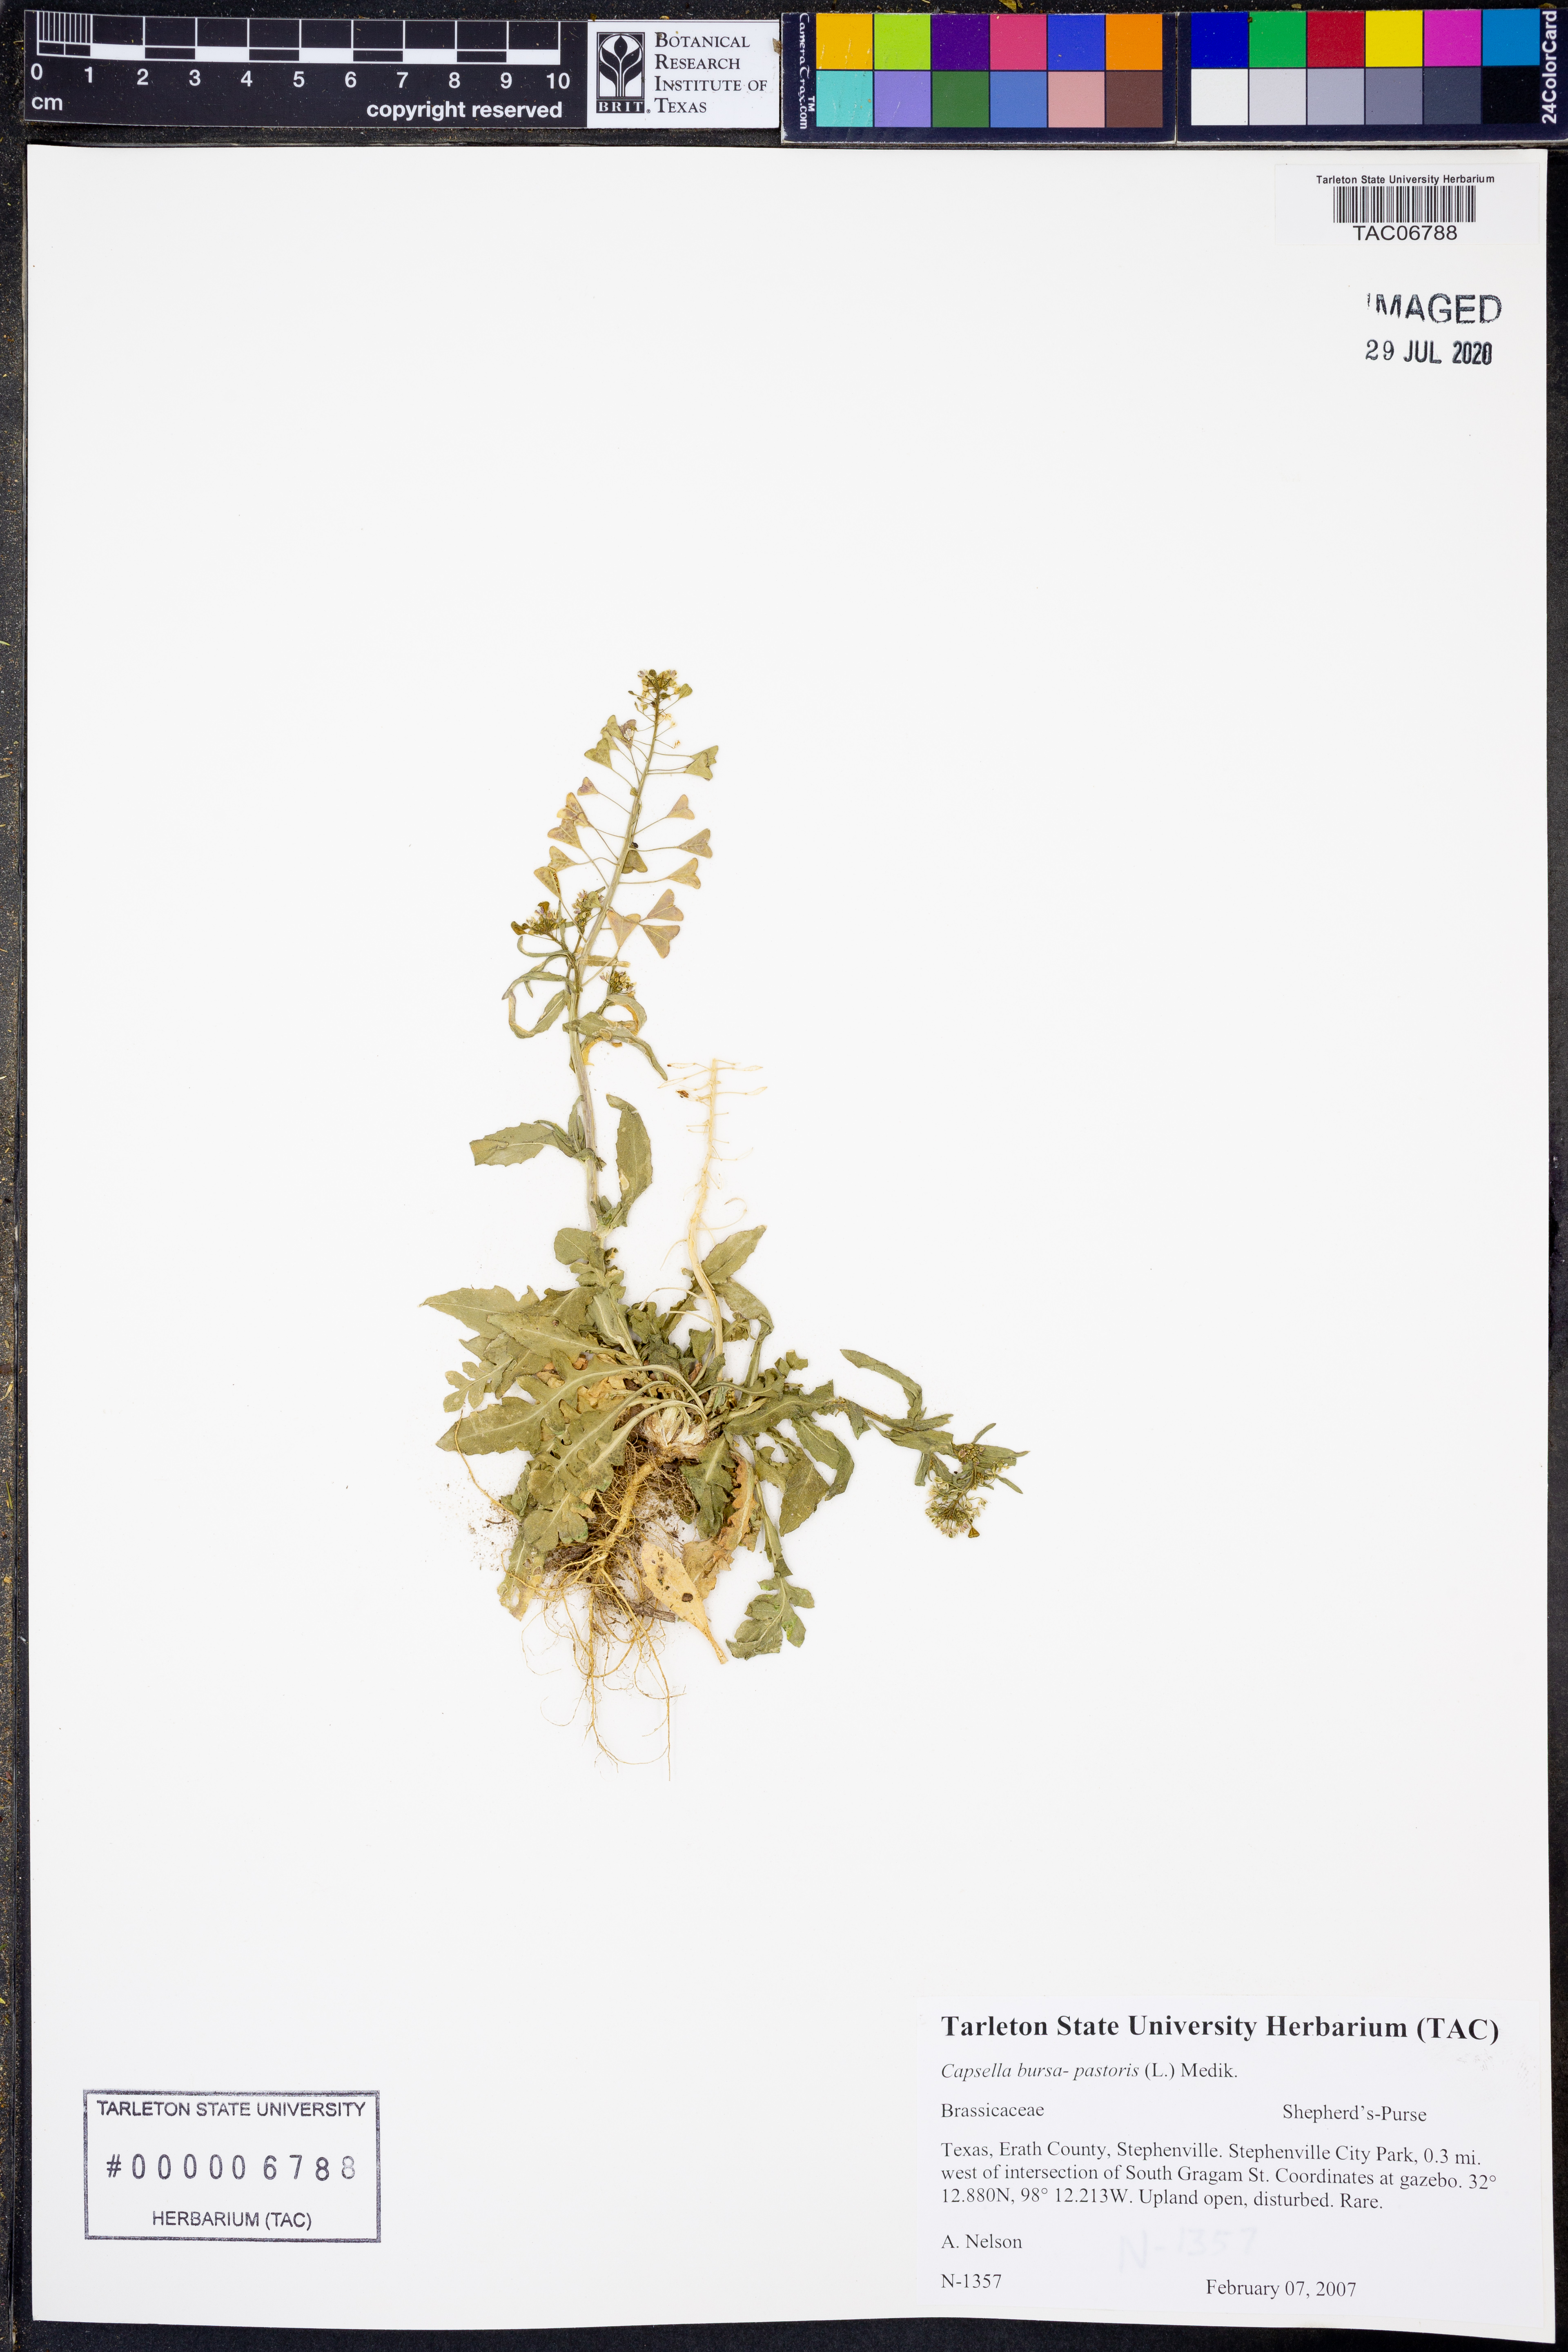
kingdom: Plantae
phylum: Tracheophyta
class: Magnoliopsida
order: Brassicales
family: Brassicaceae
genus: Capsella
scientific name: Capsella bursa-pastoris
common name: Shepherd's purse
